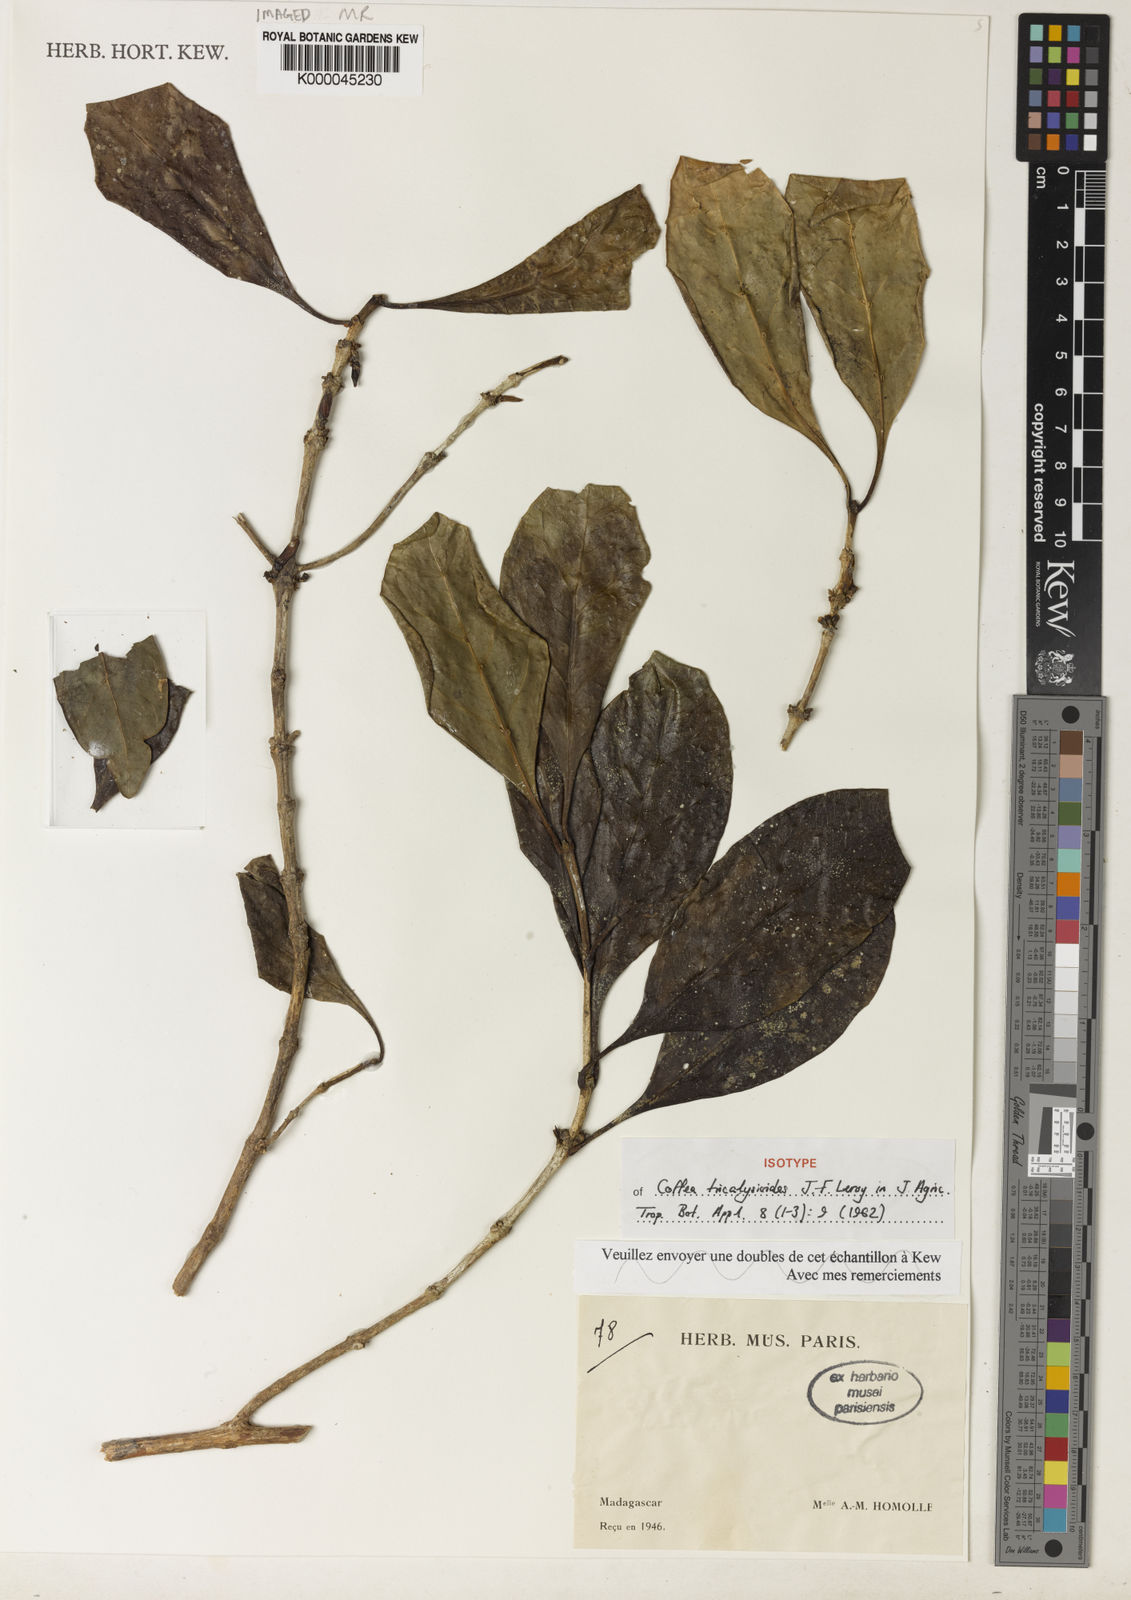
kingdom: Plantae
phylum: Tracheophyta
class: Magnoliopsida
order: Gentianales
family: Rubiaceae
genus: Coffea
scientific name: Coffea tricalysioides
